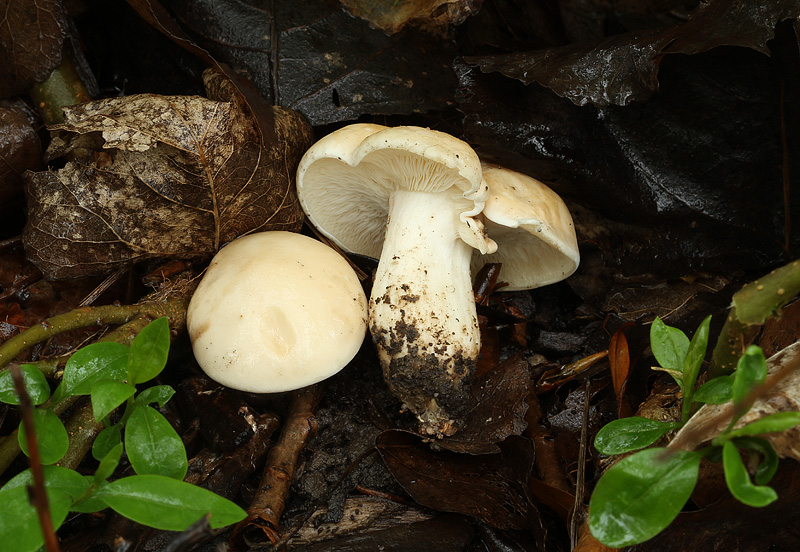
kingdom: Fungi
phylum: Basidiomycota
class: Agaricomycetes
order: Agaricales
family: Lyophyllaceae
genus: Calocybe
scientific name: Calocybe gambosa
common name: vårmusseron
